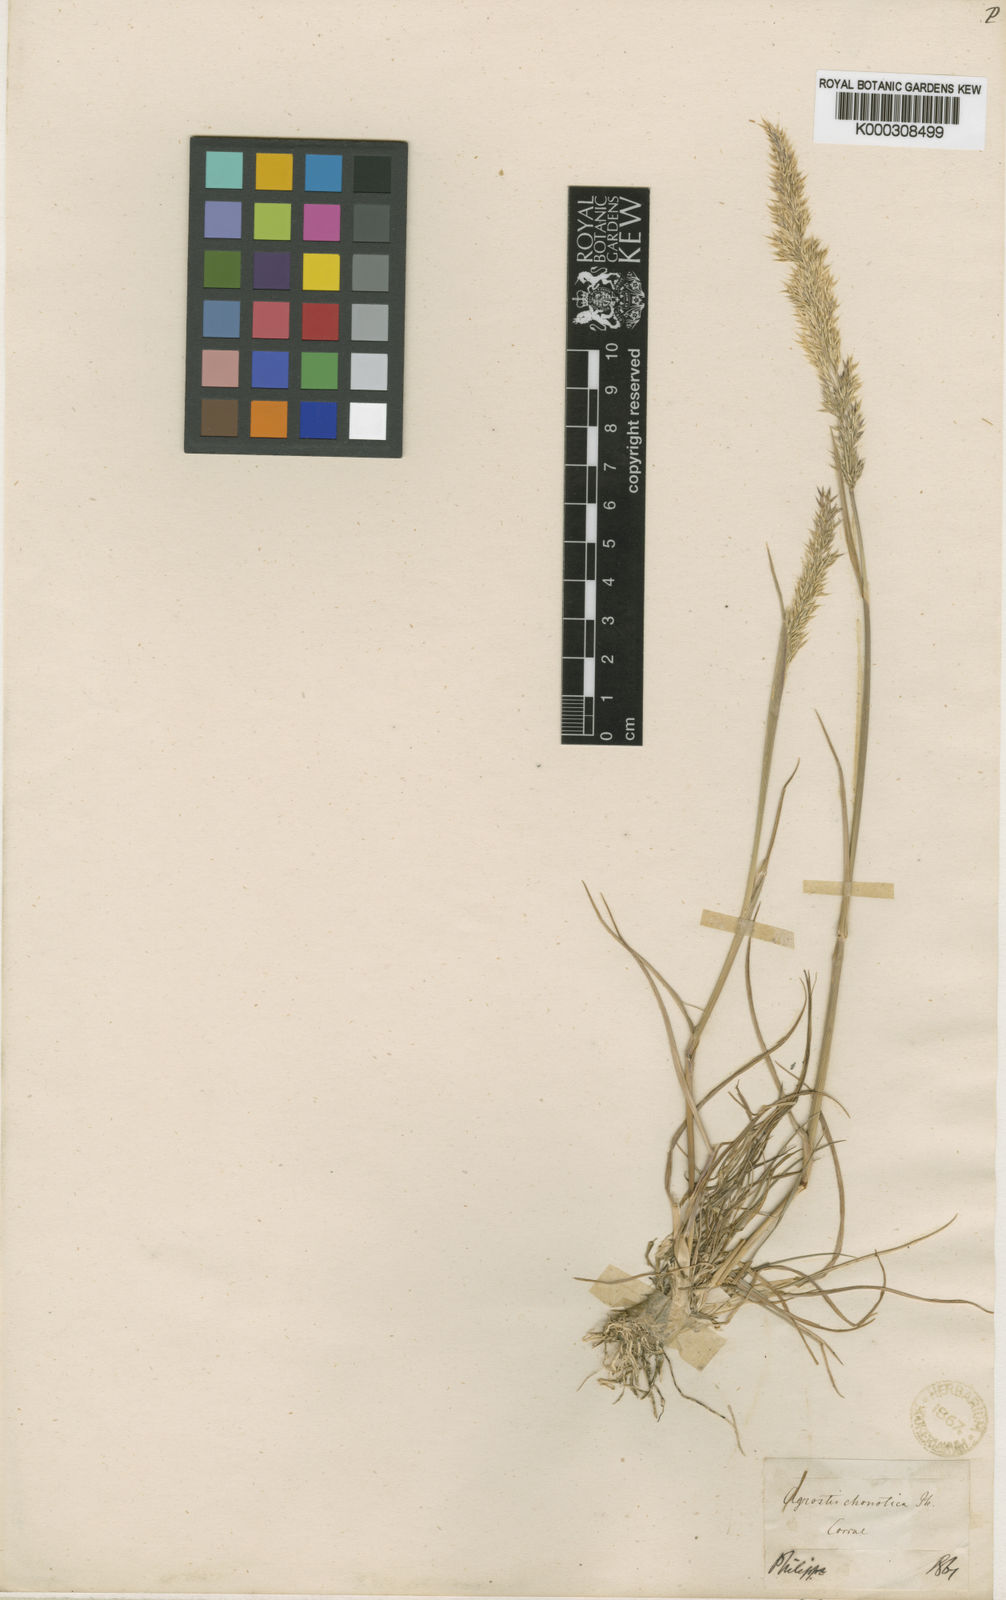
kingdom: Plantae
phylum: Tracheophyta
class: Liliopsida
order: Poales
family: Poaceae
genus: Polypogon
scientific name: Polypogon
